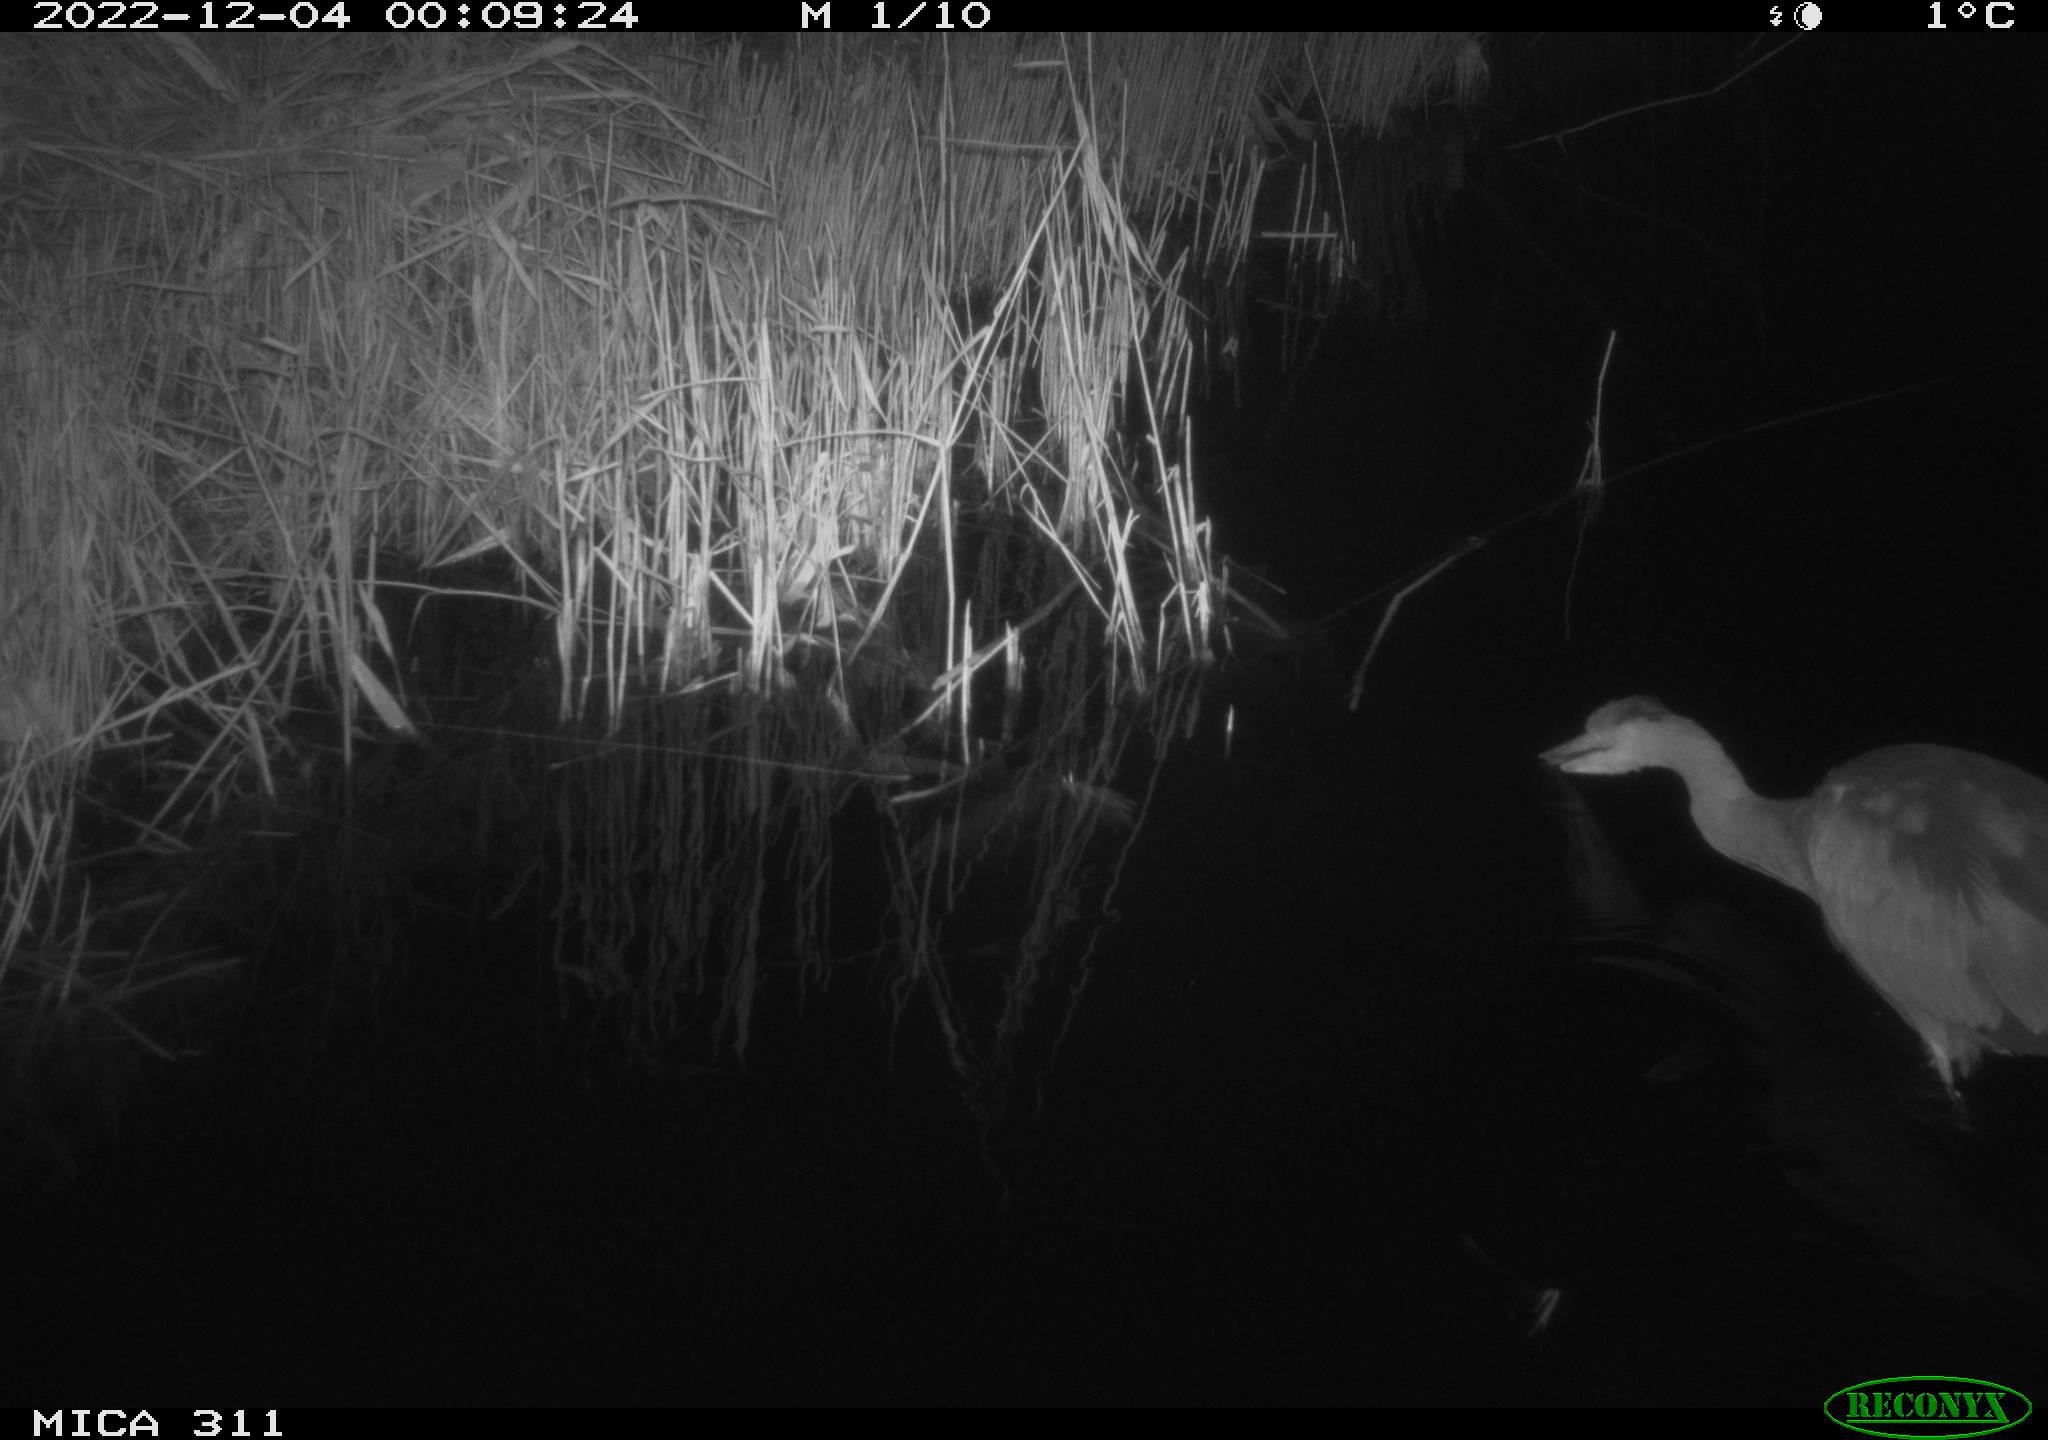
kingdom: Animalia
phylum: Chordata
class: Aves
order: Pelecaniformes
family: Ardeidae
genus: Ardea
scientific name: Ardea cinerea
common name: Grey heron
